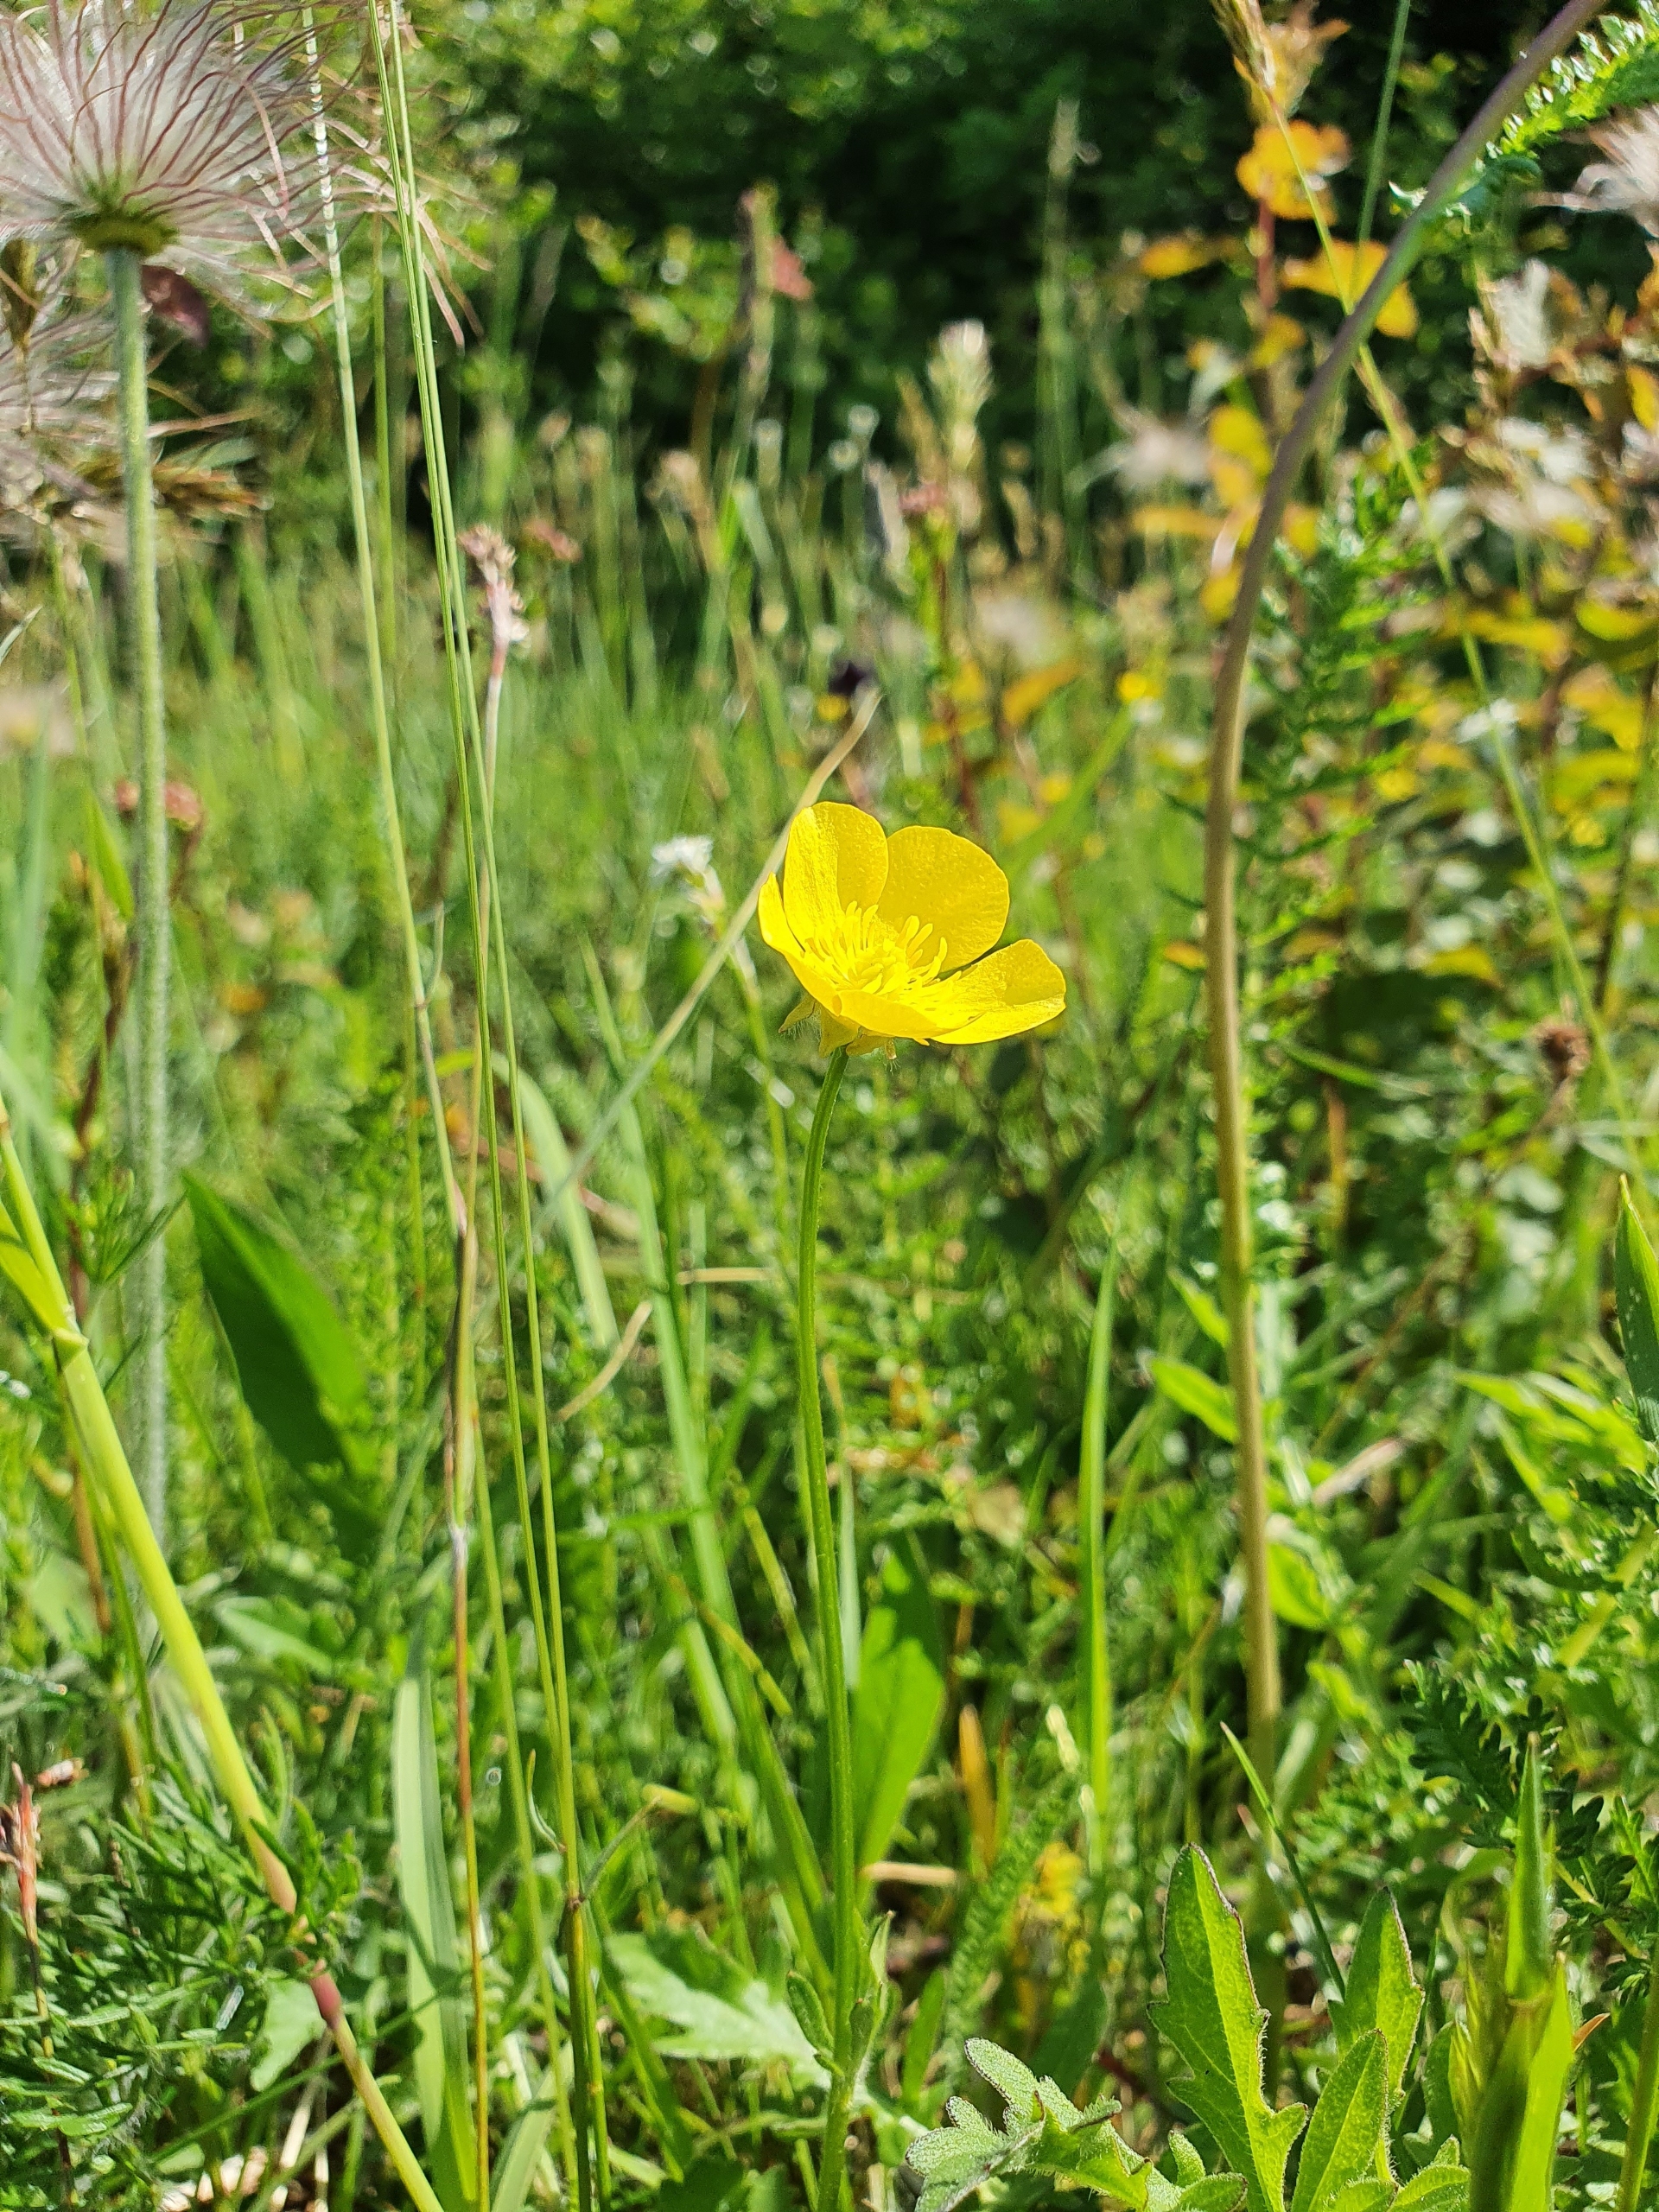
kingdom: Plantae
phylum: Tracheophyta
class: Magnoliopsida
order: Ranunculales
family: Ranunculaceae
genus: Ranunculus
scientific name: Ranunculus bulbosus
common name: Knold-ranunkel
